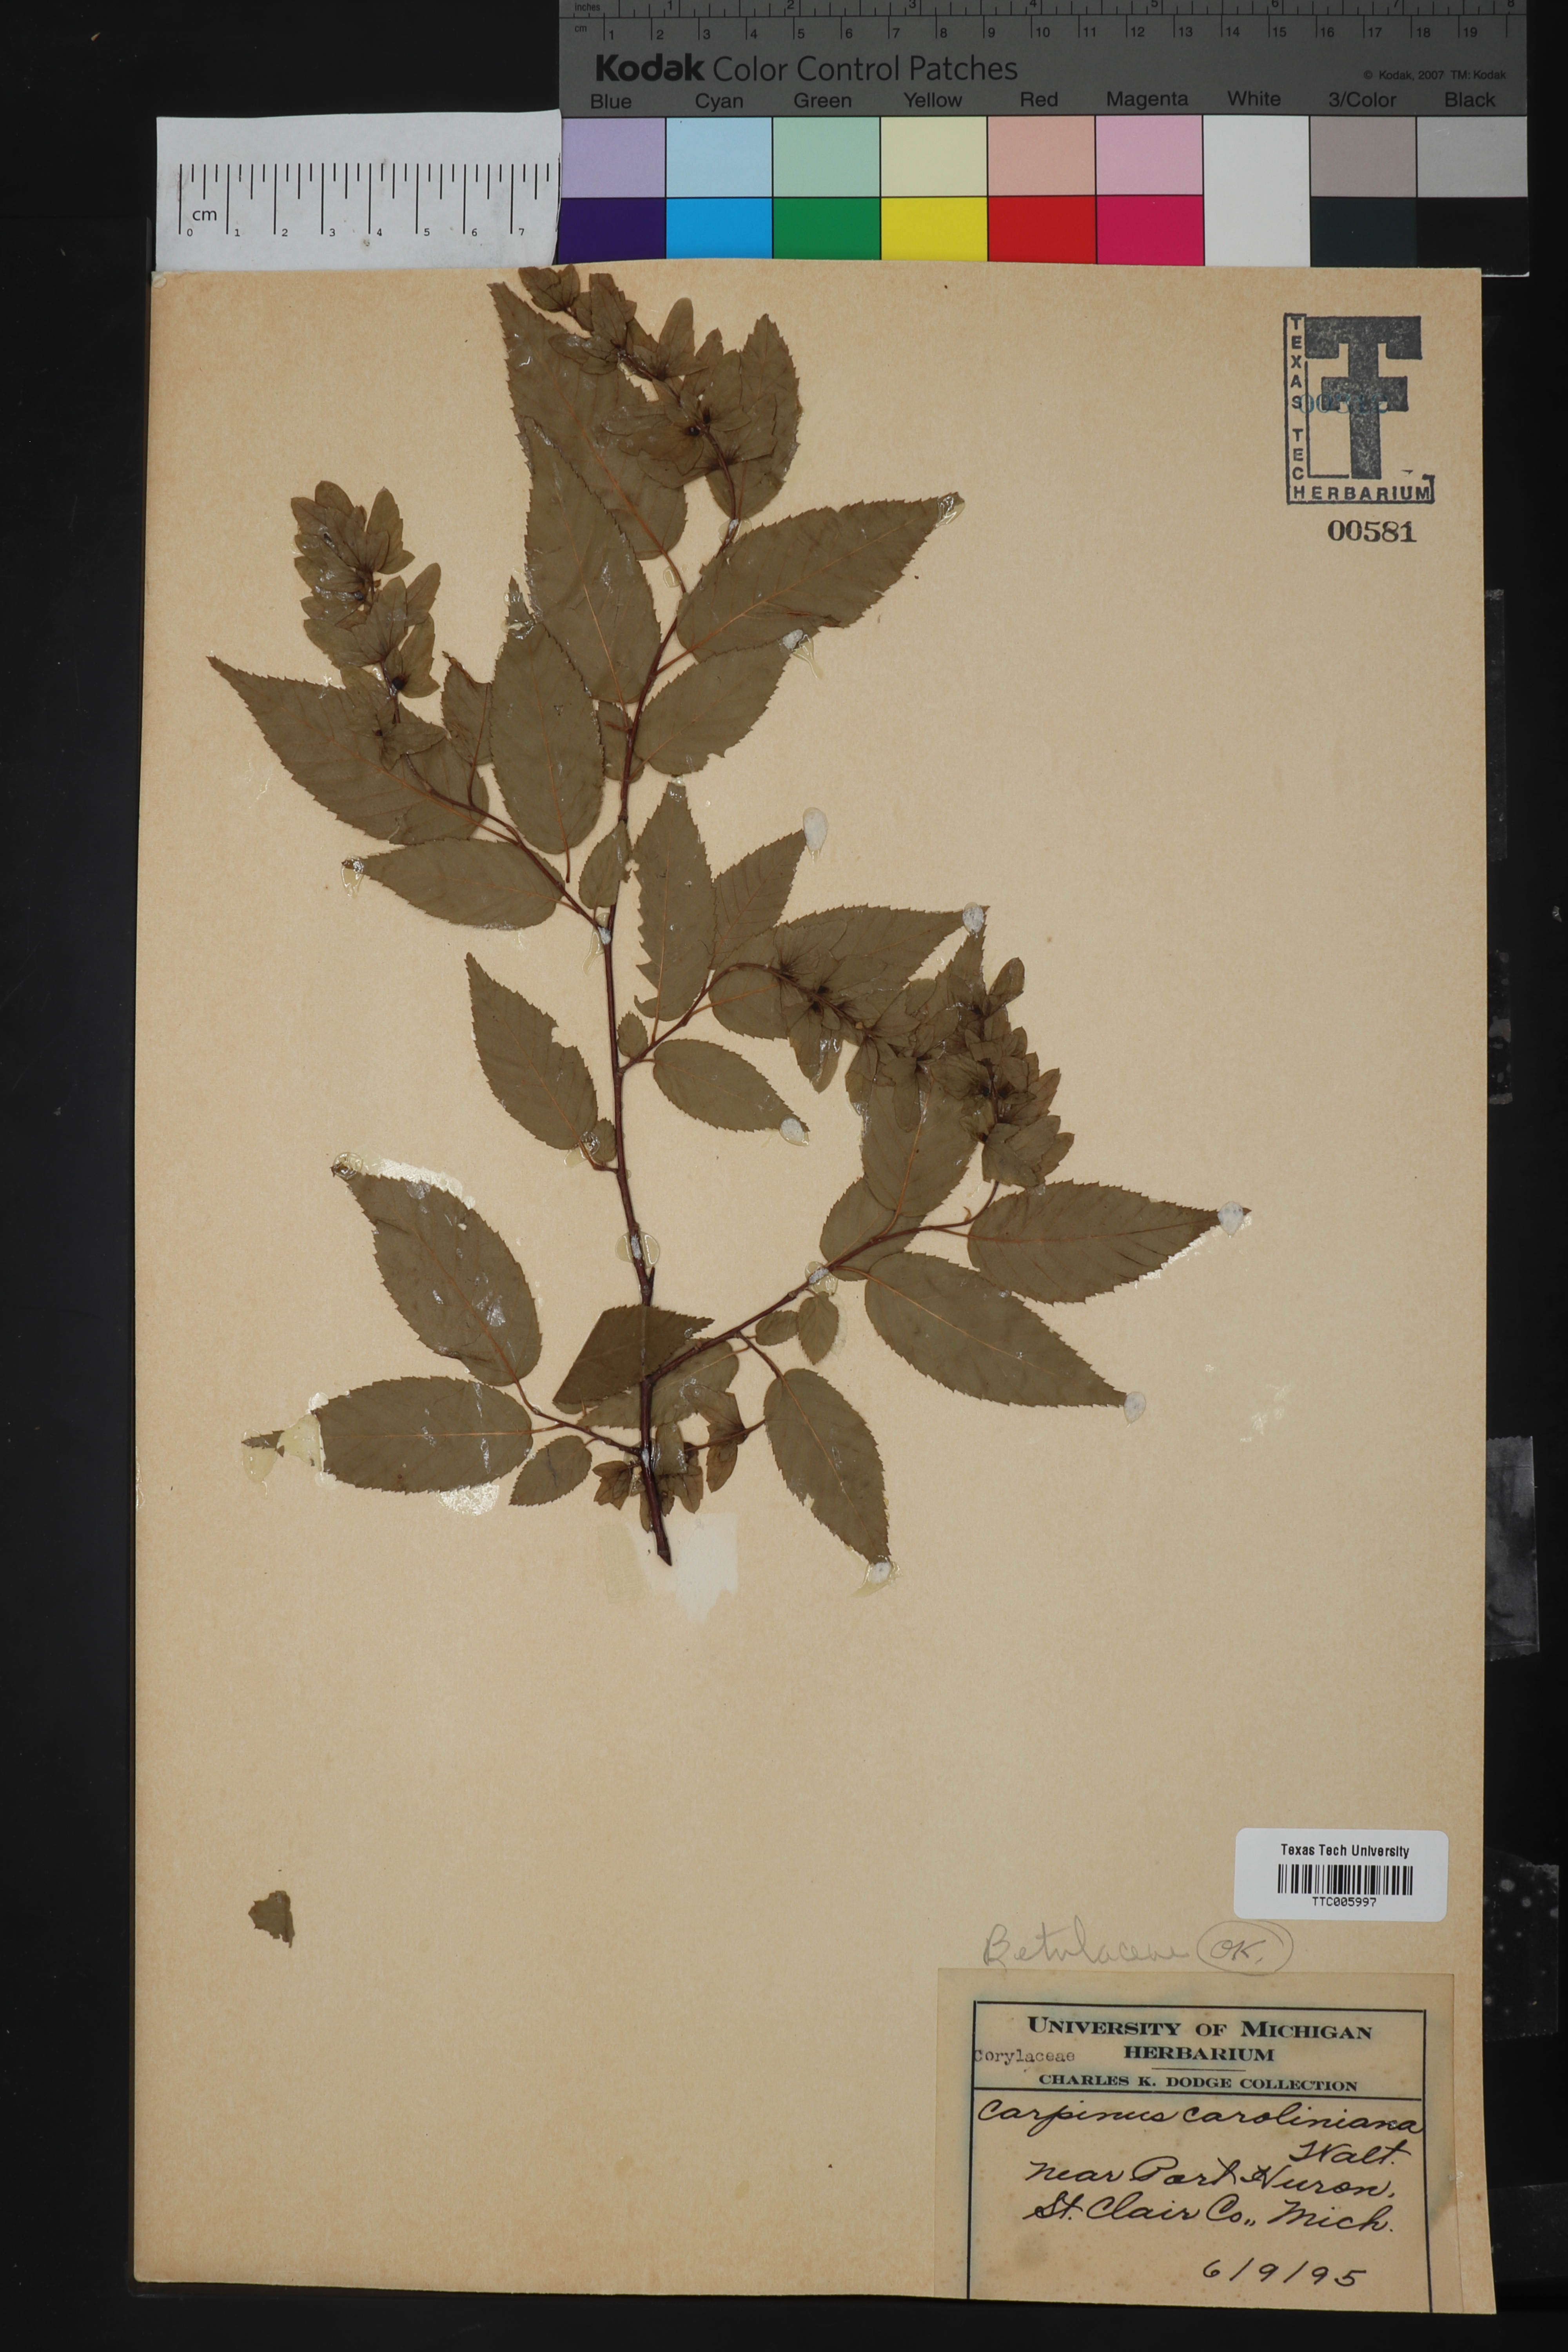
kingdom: Plantae
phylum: Tracheophyta
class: Magnoliopsida
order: Fagales
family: Betulaceae
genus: Carpinus
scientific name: Carpinus caroliniana
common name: American hornbeam
